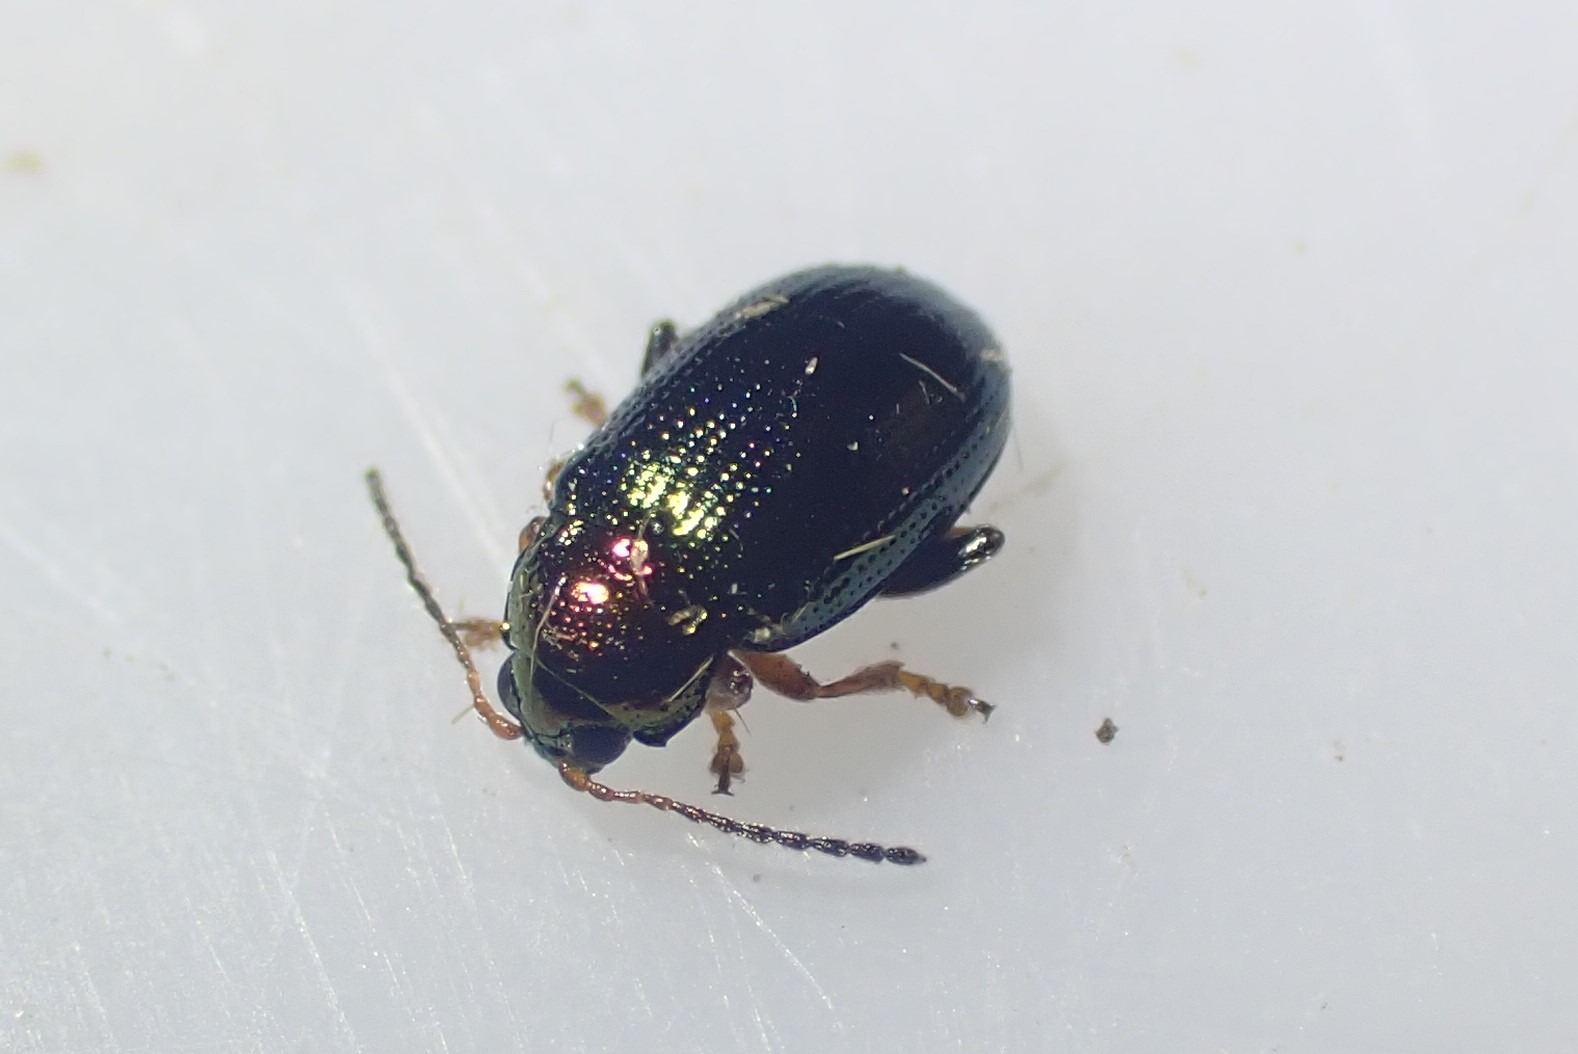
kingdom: Animalia
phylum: Arthropoda
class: Insecta
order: Coleoptera
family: Chrysomelidae
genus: Crepidodera
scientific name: Crepidodera aurata
